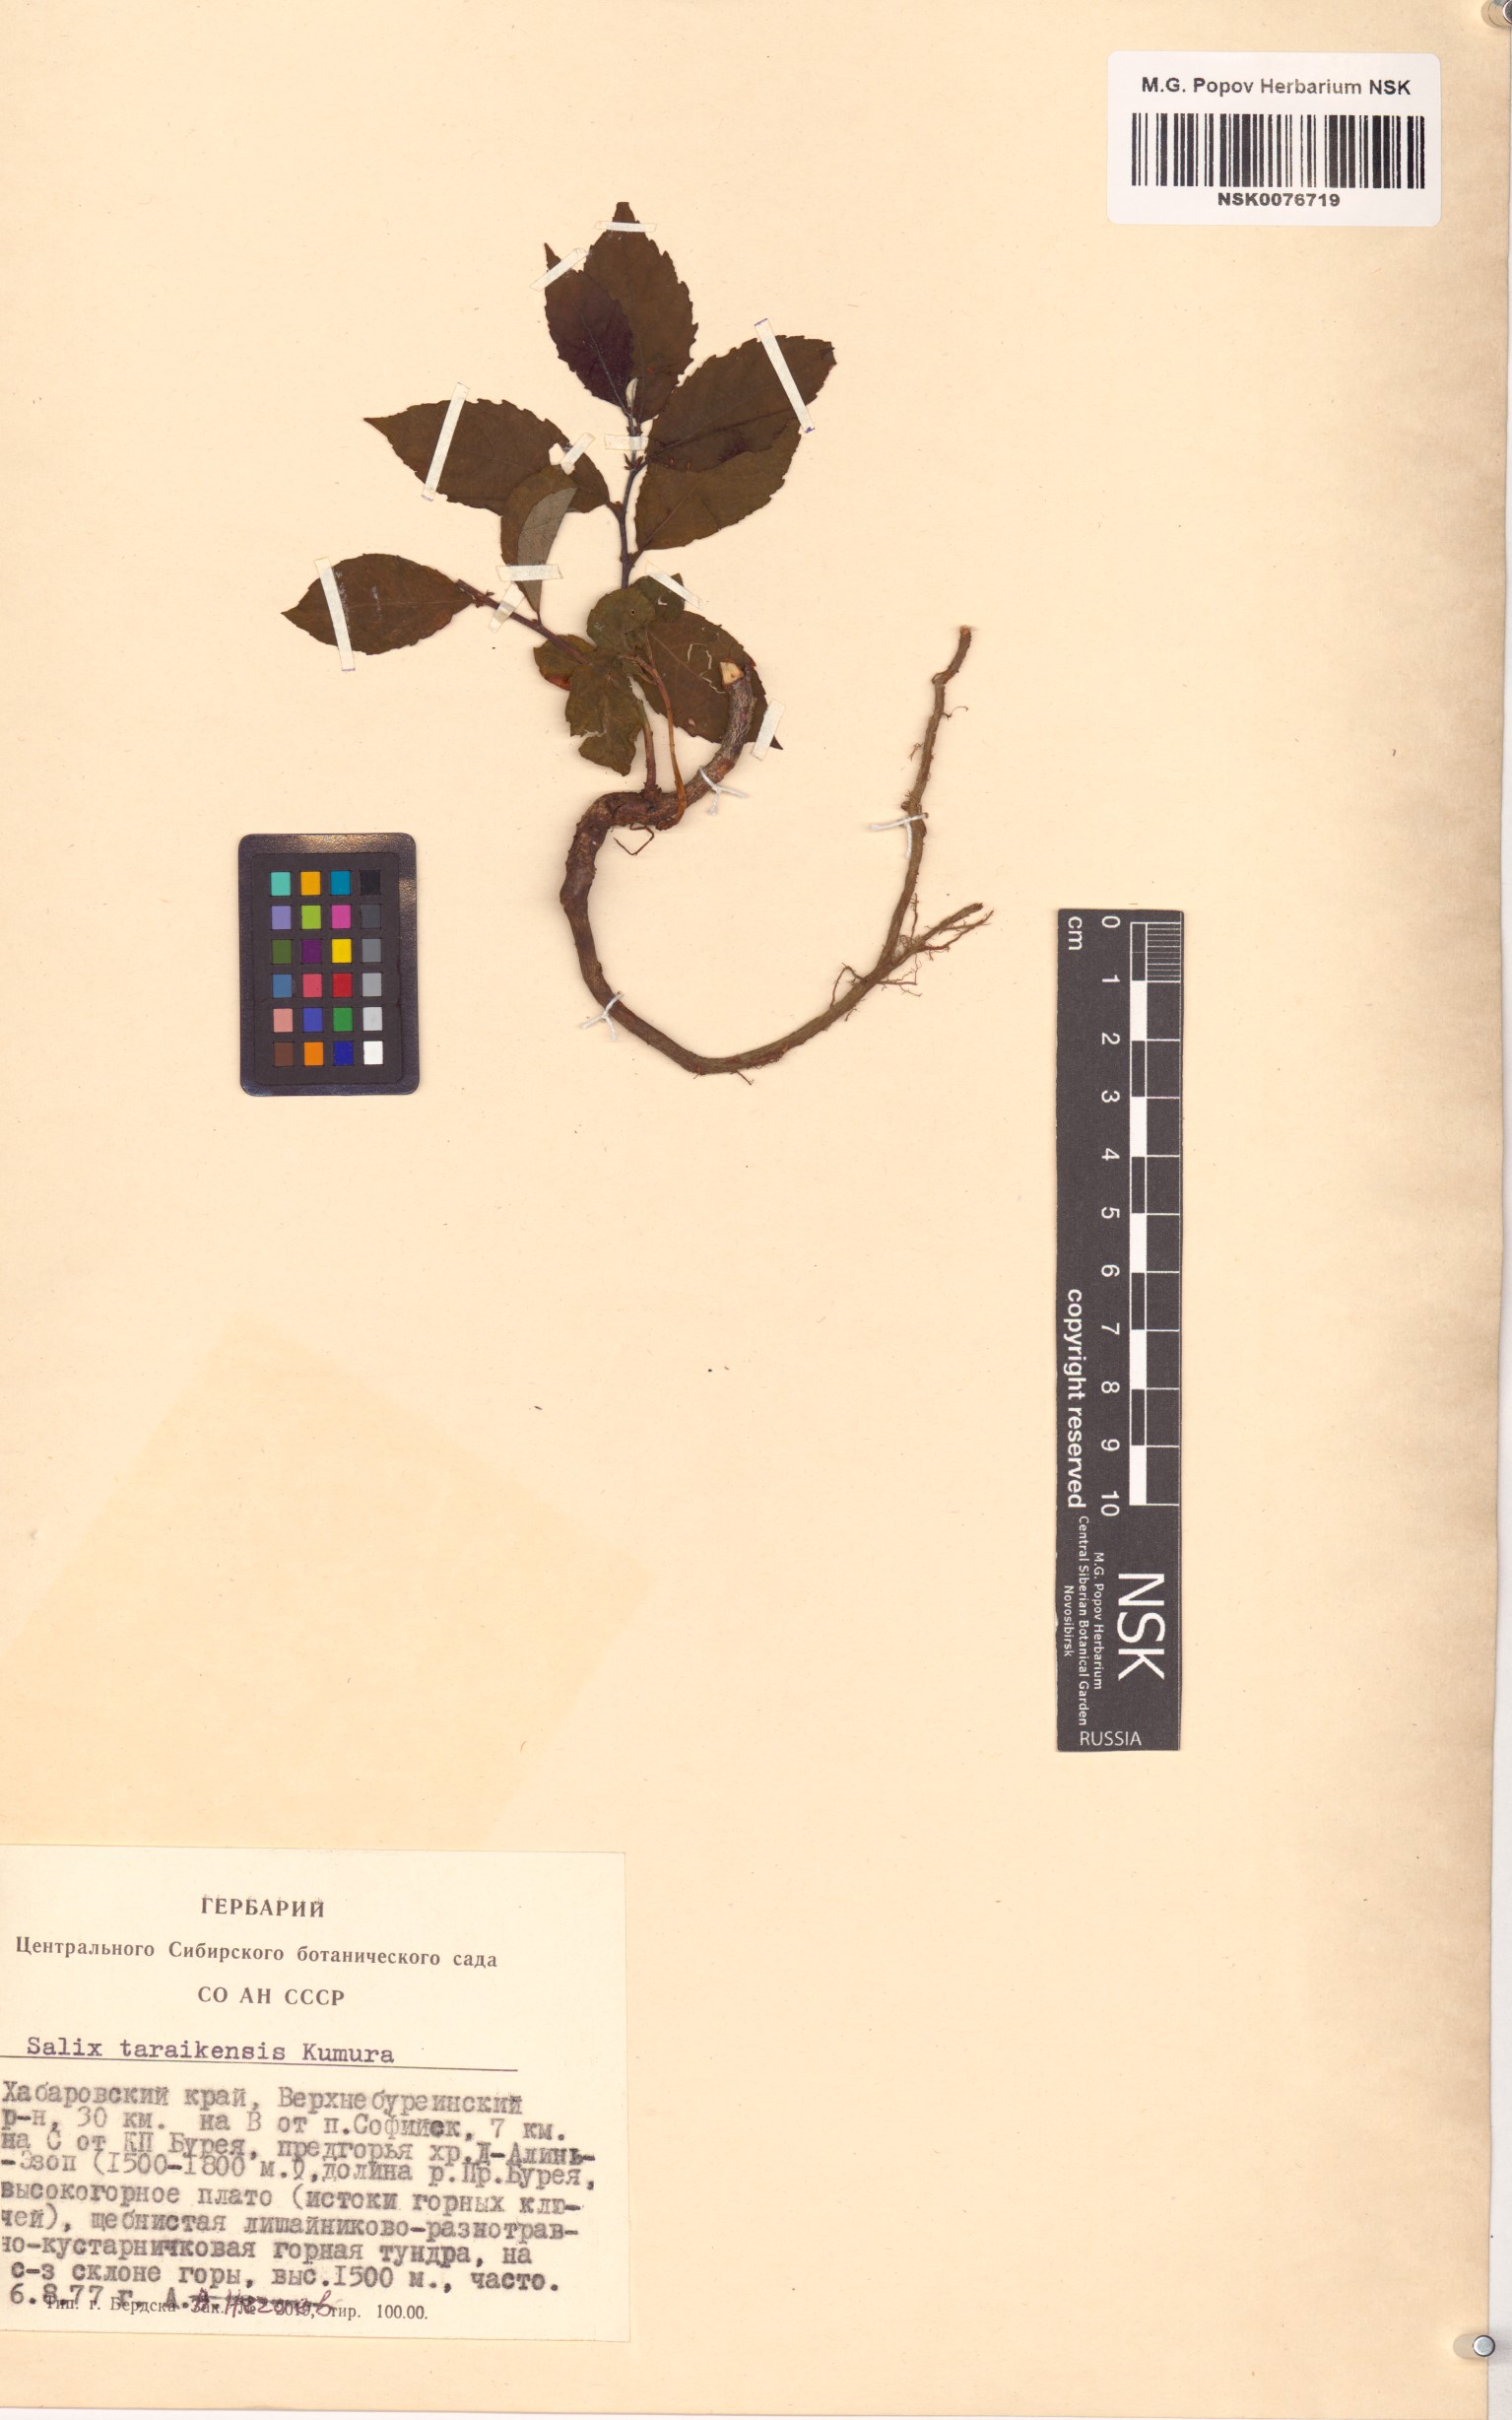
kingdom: Plantae
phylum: Tracheophyta
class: Magnoliopsida
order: Malpighiales
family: Salicaceae
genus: Salix
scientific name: Salix taraikensis
